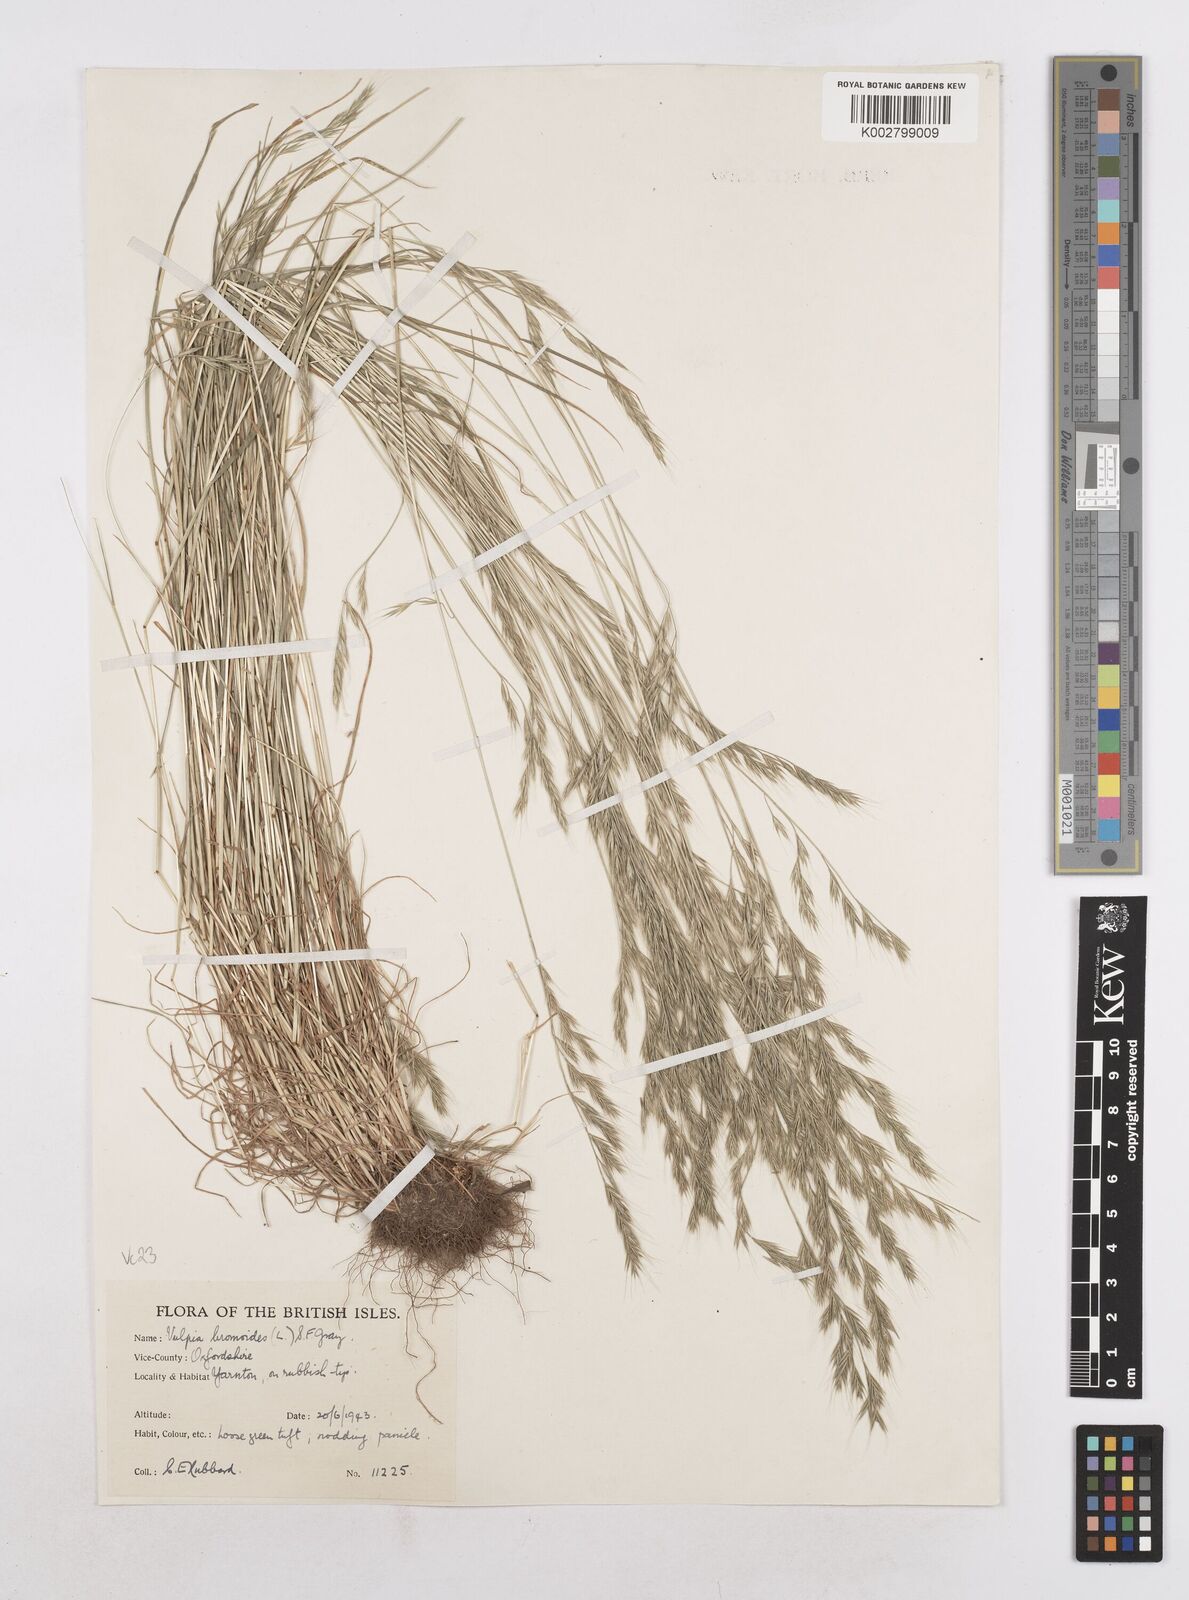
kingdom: Plantae
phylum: Tracheophyta
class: Liliopsida
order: Poales
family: Poaceae
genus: Festuca
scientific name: Festuca bromoides
